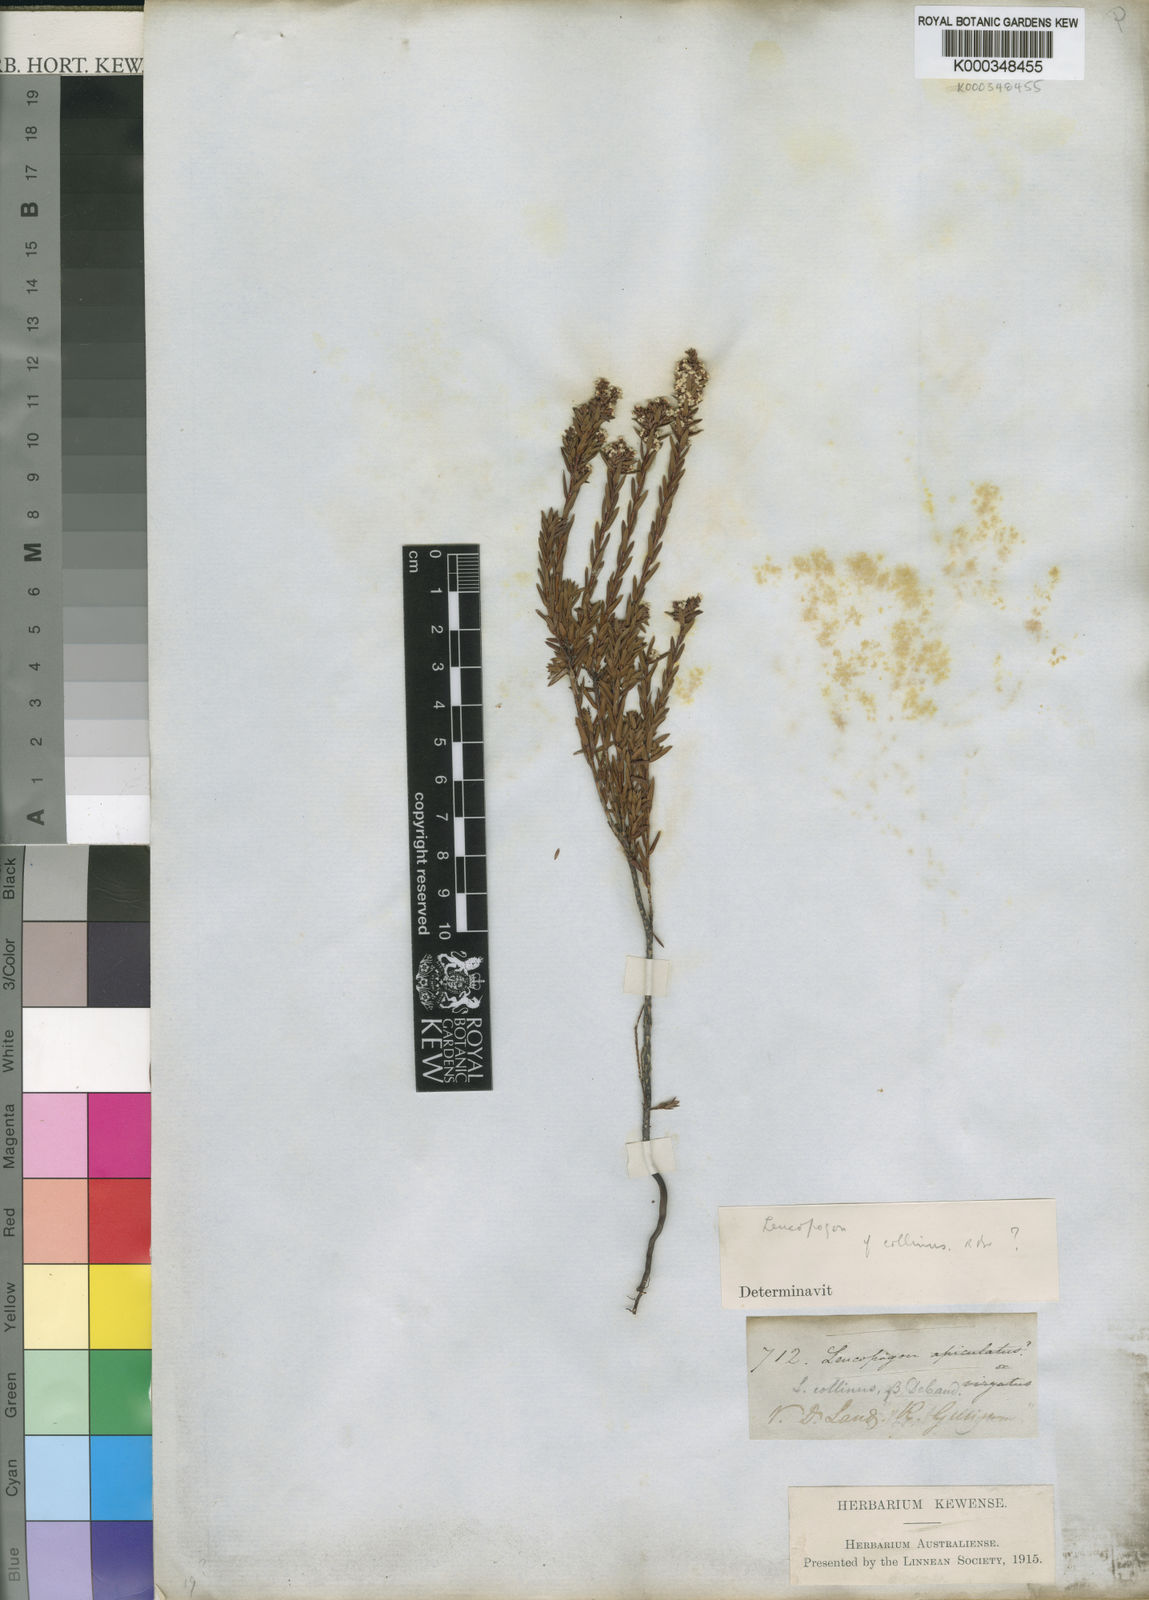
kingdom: Plantae
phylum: Tracheophyta
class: Magnoliopsida
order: Ericales
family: Ericaceae
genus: Leucopogon
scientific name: Leucopogon collinus
